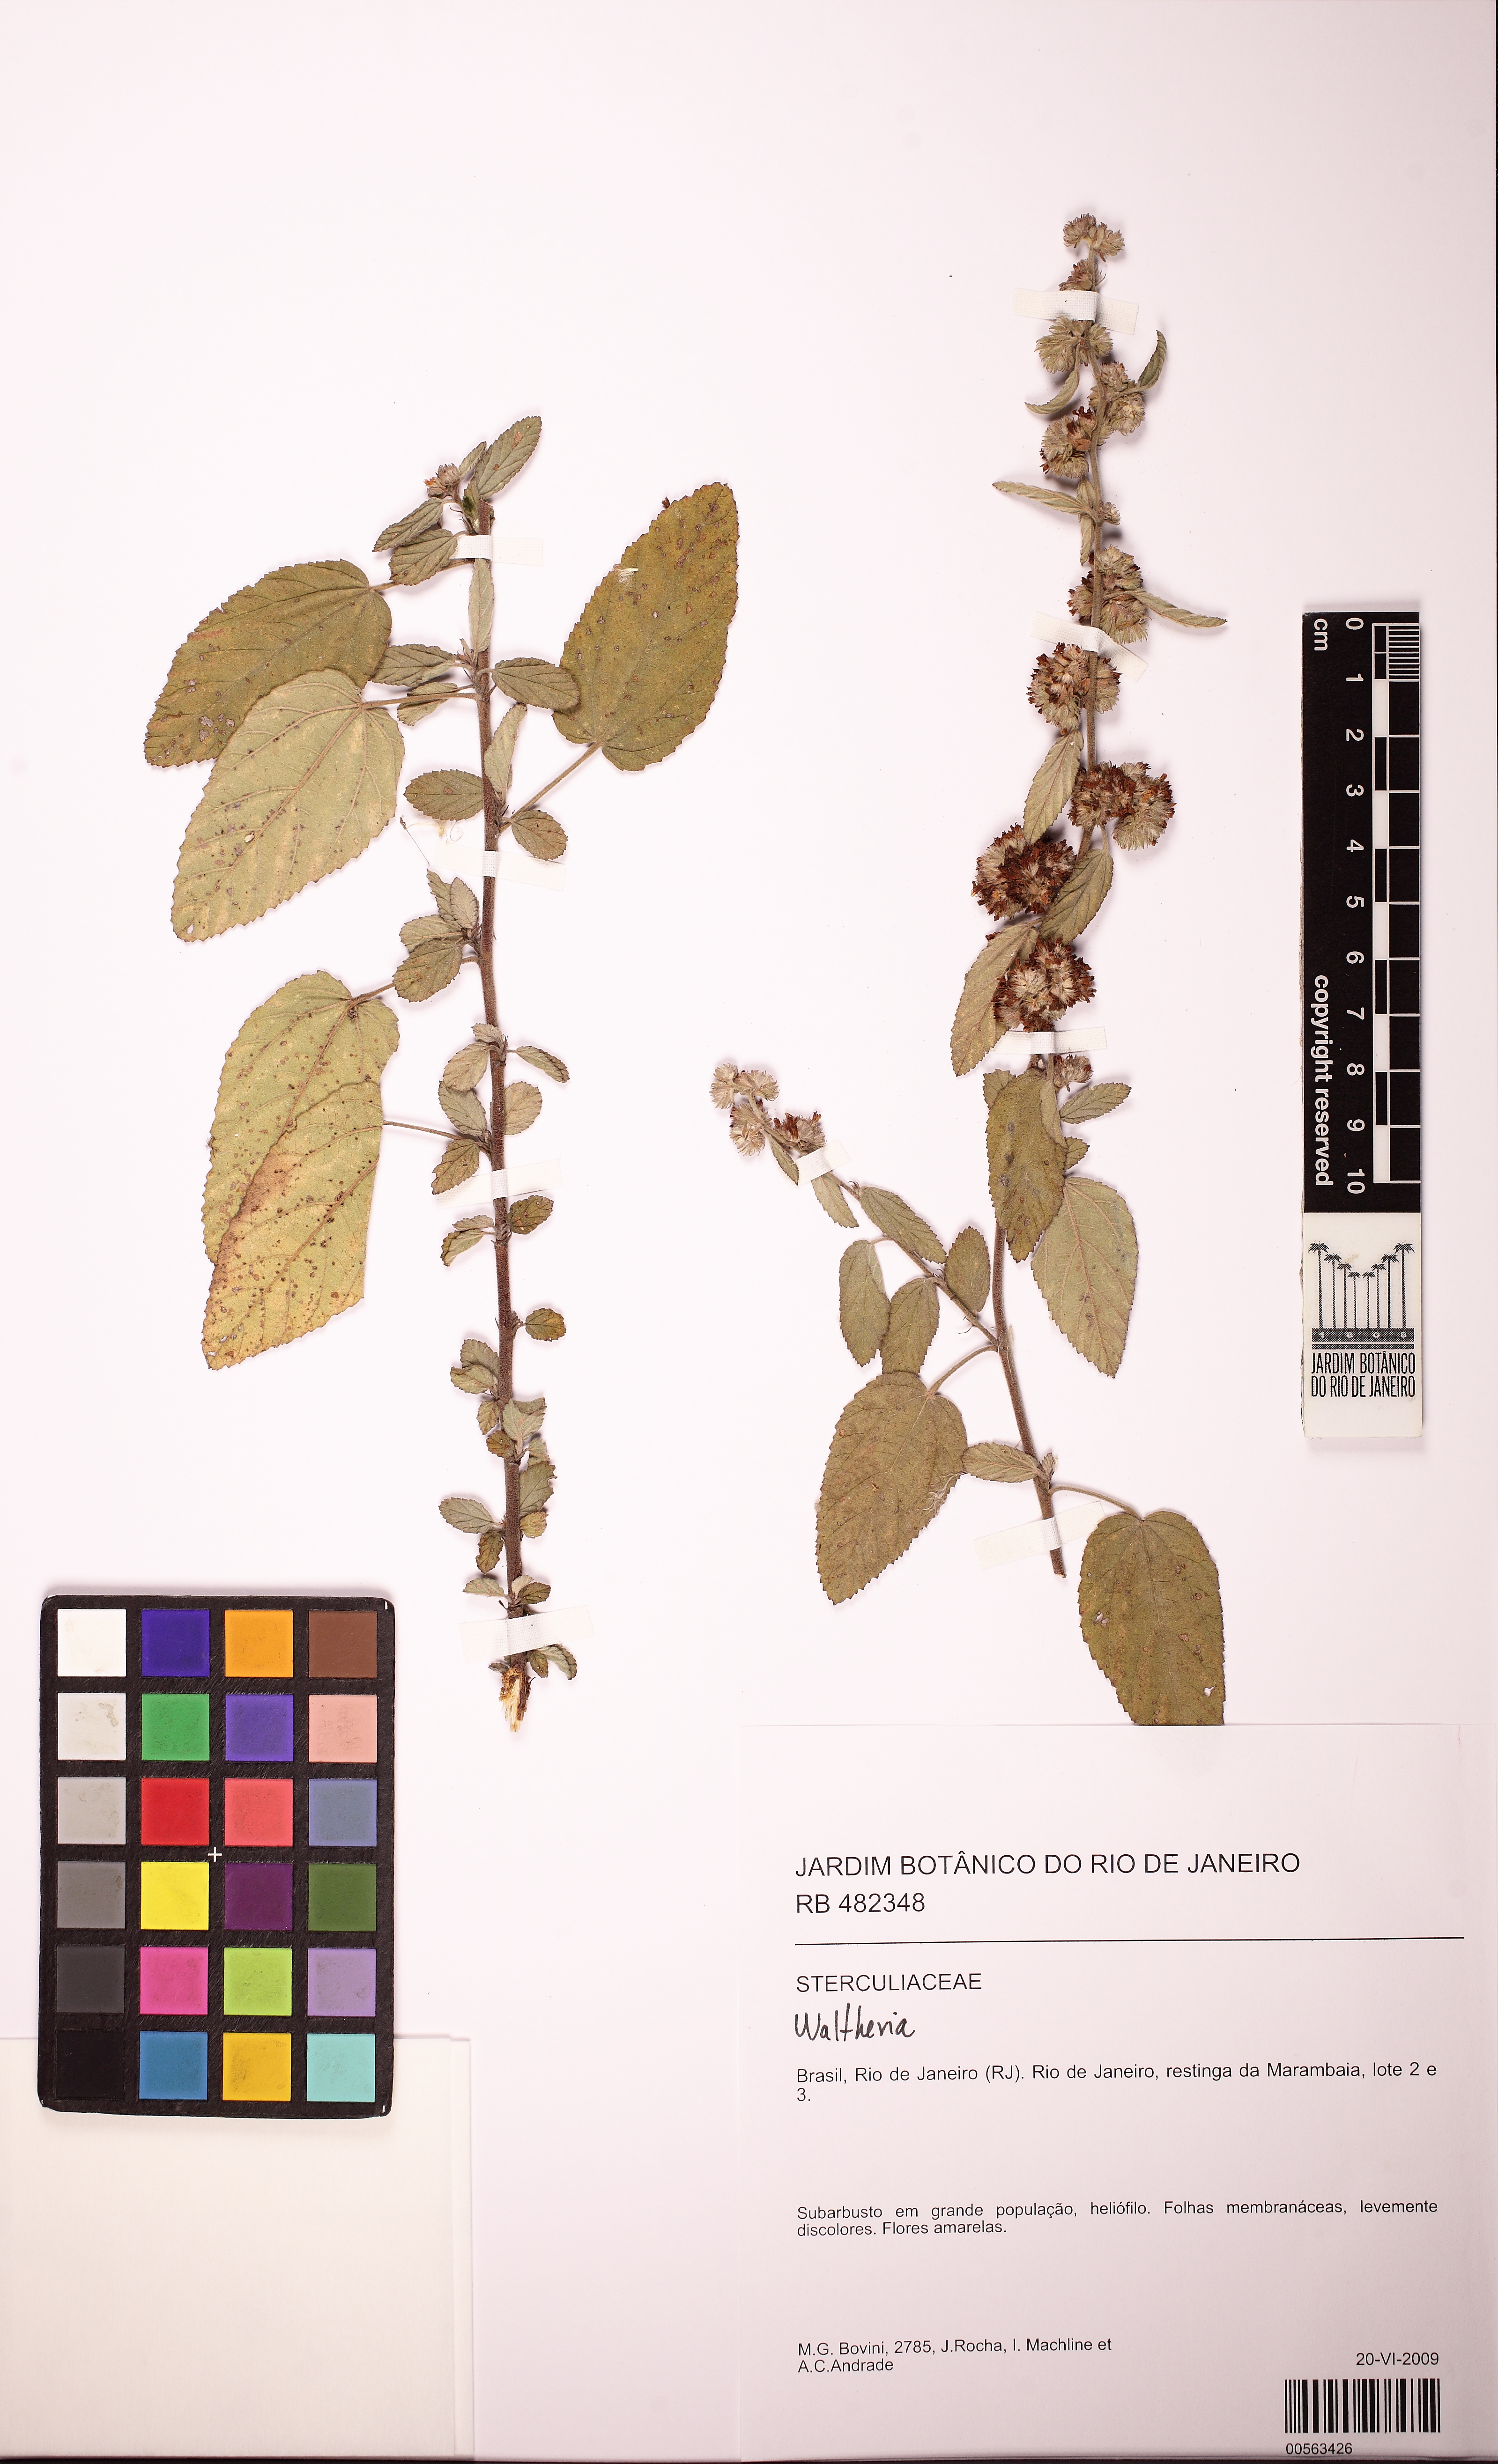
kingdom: Plantae
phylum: Tracheophyta
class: Magnoliopsida
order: Malvales
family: Malvaceae
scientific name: Malvaceae
